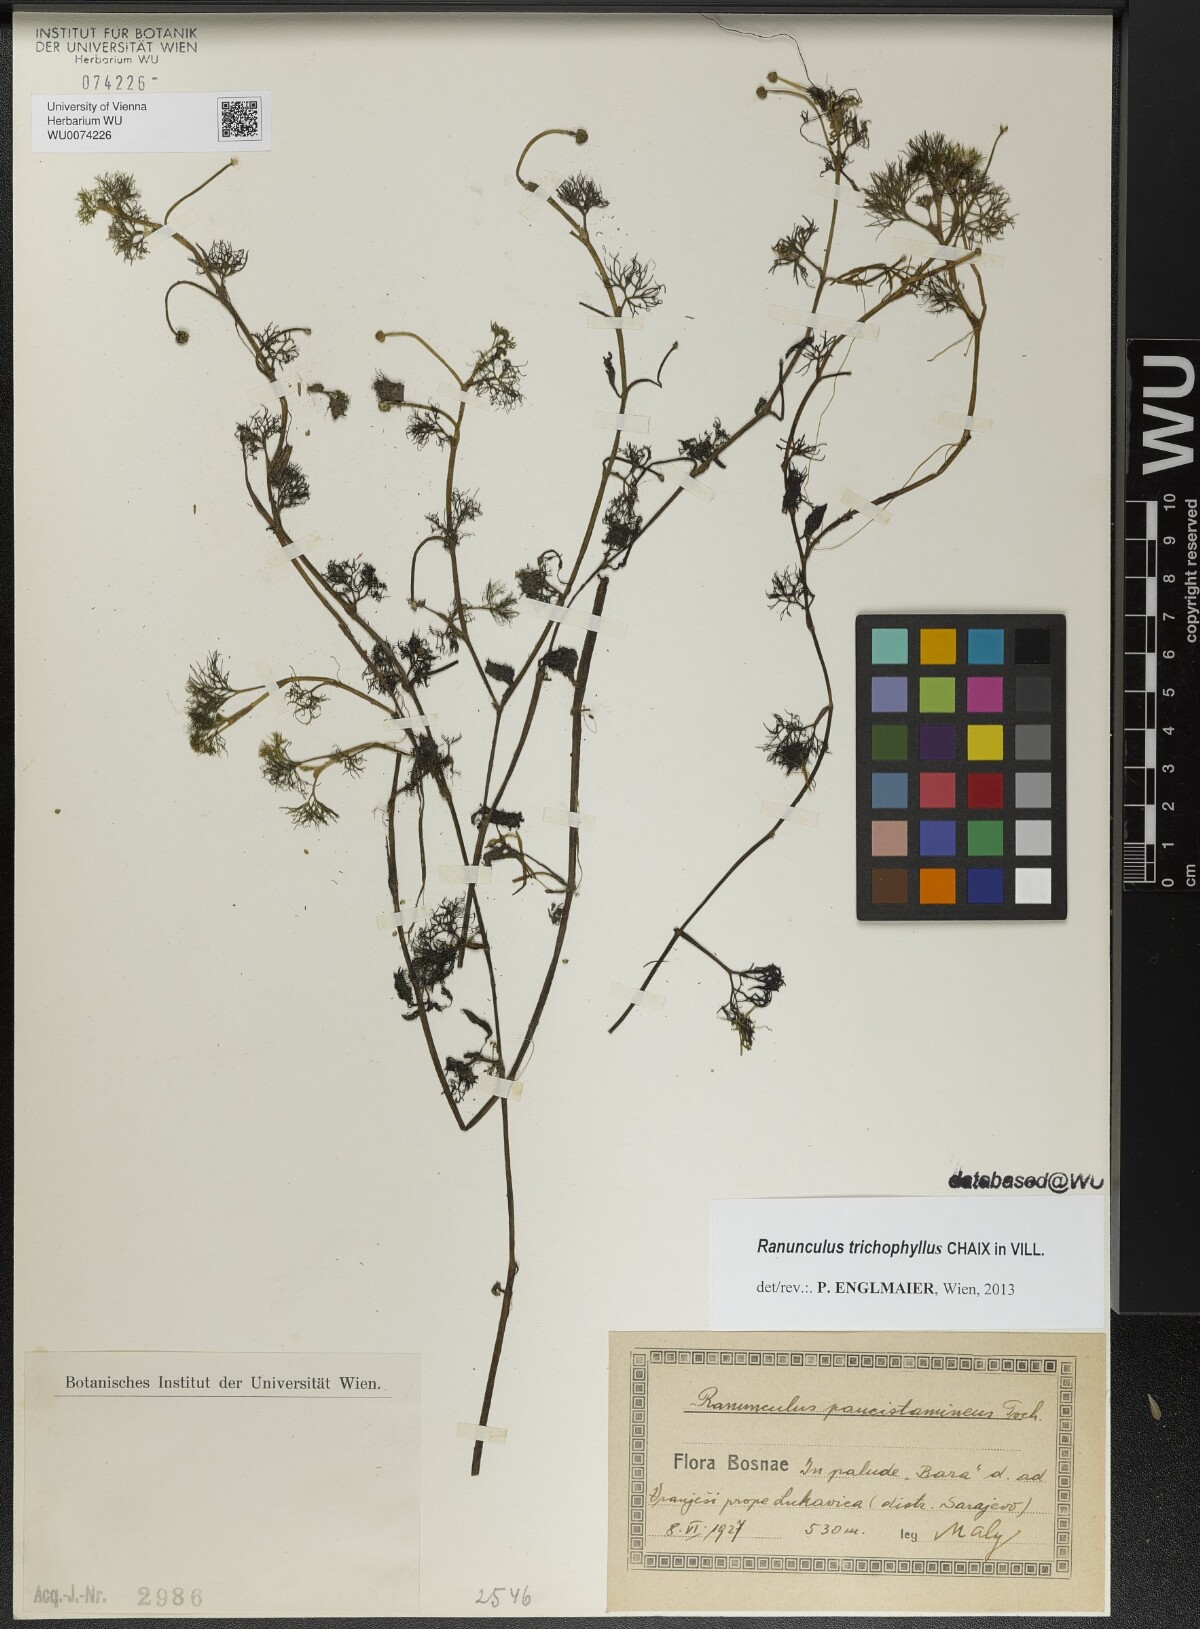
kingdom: Plantae
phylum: Tracheophyta
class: Magnoliopsida
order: Ranunculales
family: Ranunculaceae
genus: Ranunculus
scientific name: Ranunculus trichophyllus
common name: Thread-leaved water-crowfoot
